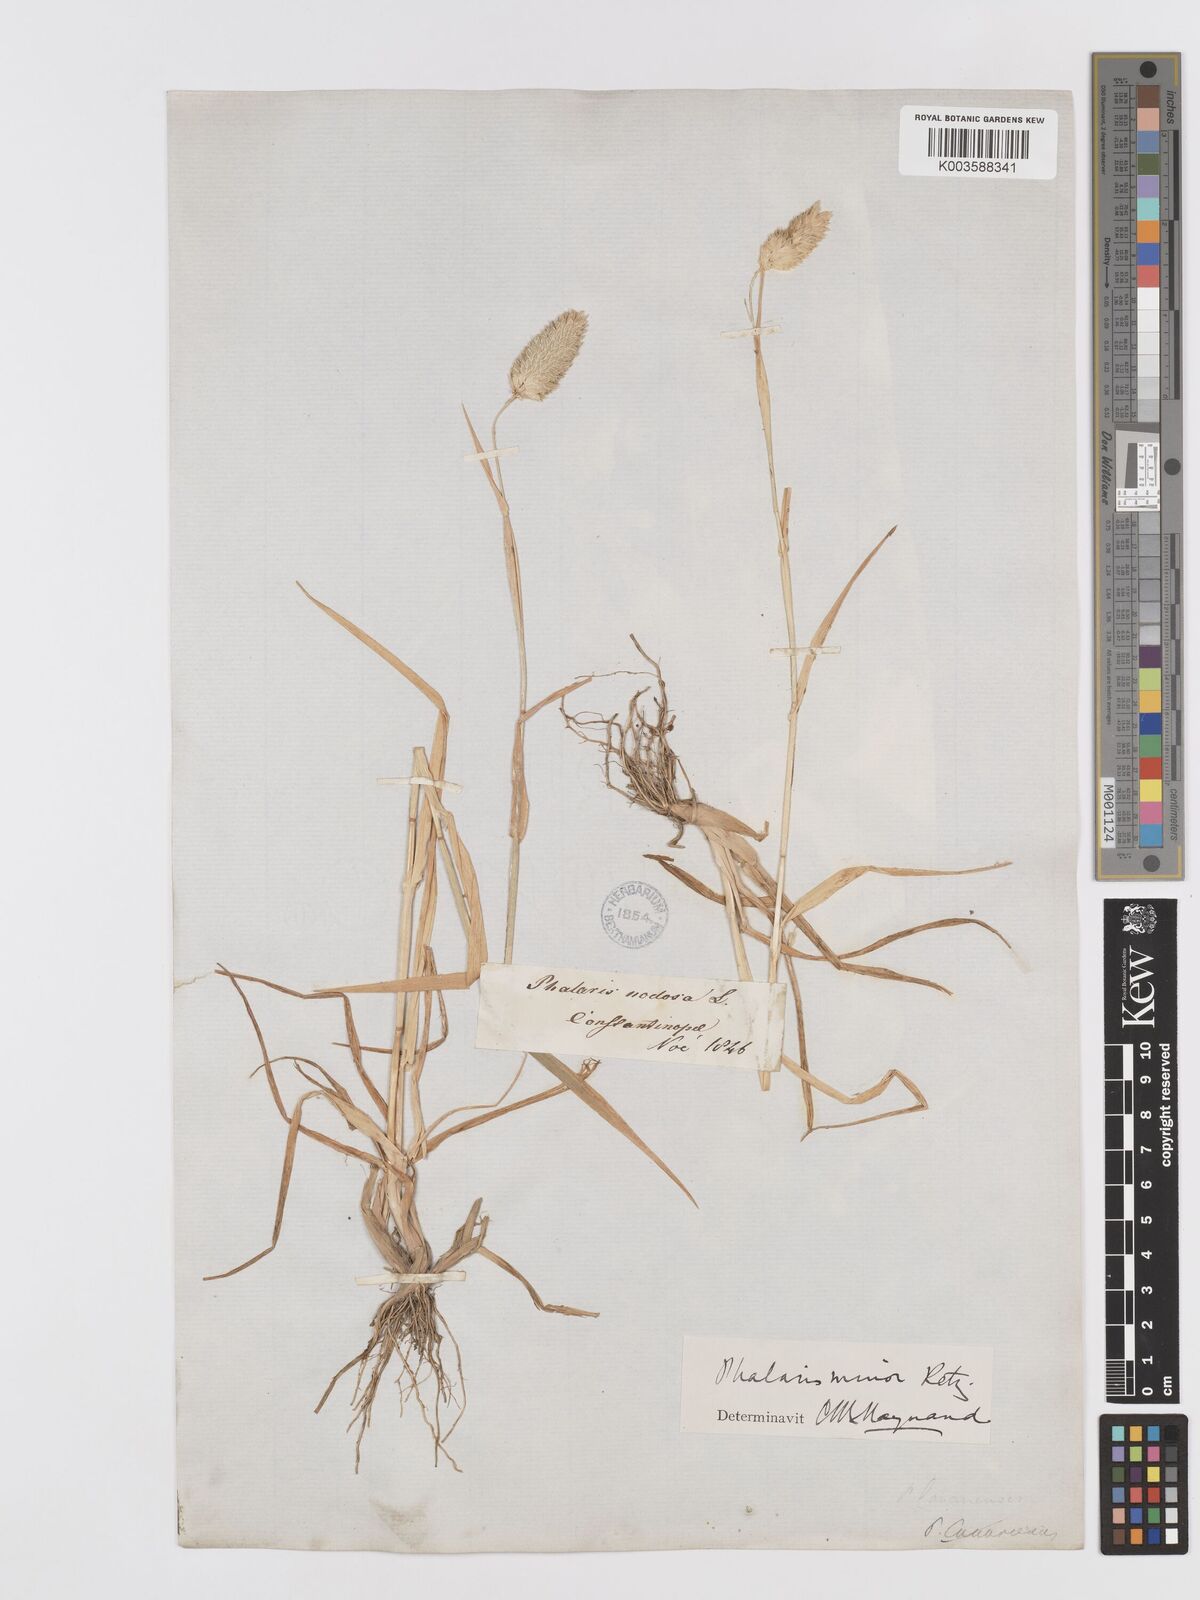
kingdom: Plantae
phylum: Tracheophyta
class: Liliopsida
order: Poales
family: Poaceae
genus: Phalaris
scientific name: Phalaris minor
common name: Littleseed canarygrass
